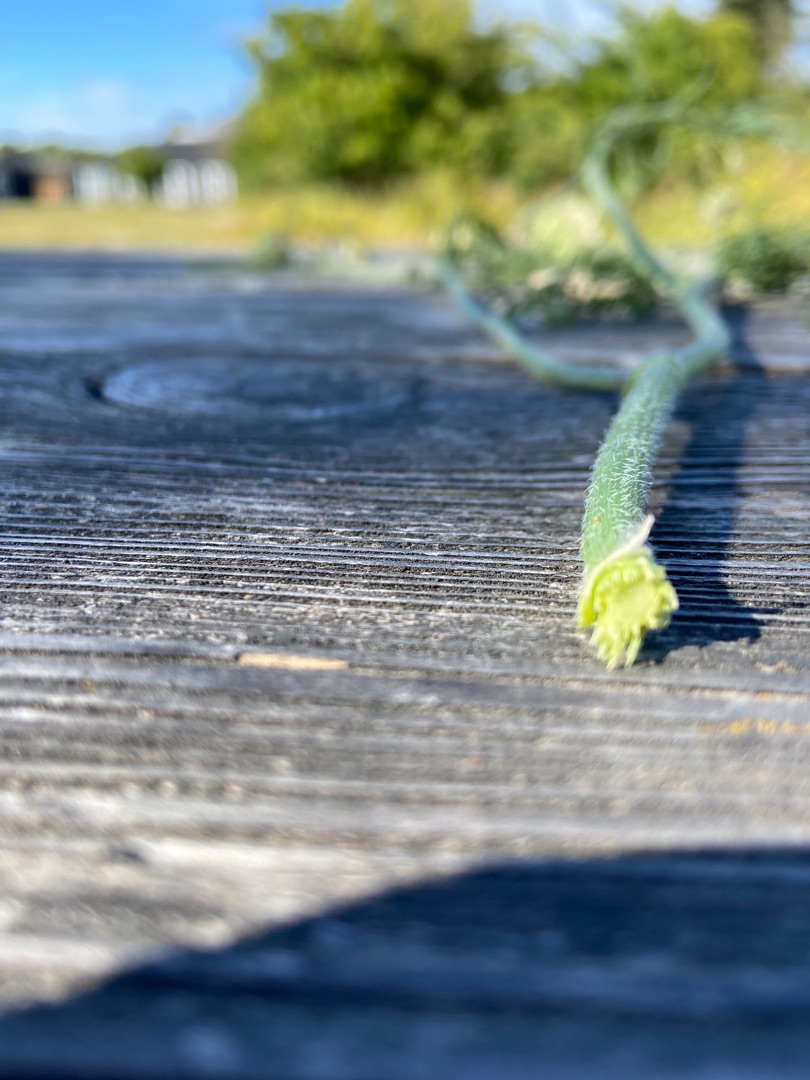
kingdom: Plantae
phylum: Tracheophyta
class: Magnoliopsida
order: Apiales
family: Apiaceae
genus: Daucus
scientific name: Daucus carota
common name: Vild gulerod
